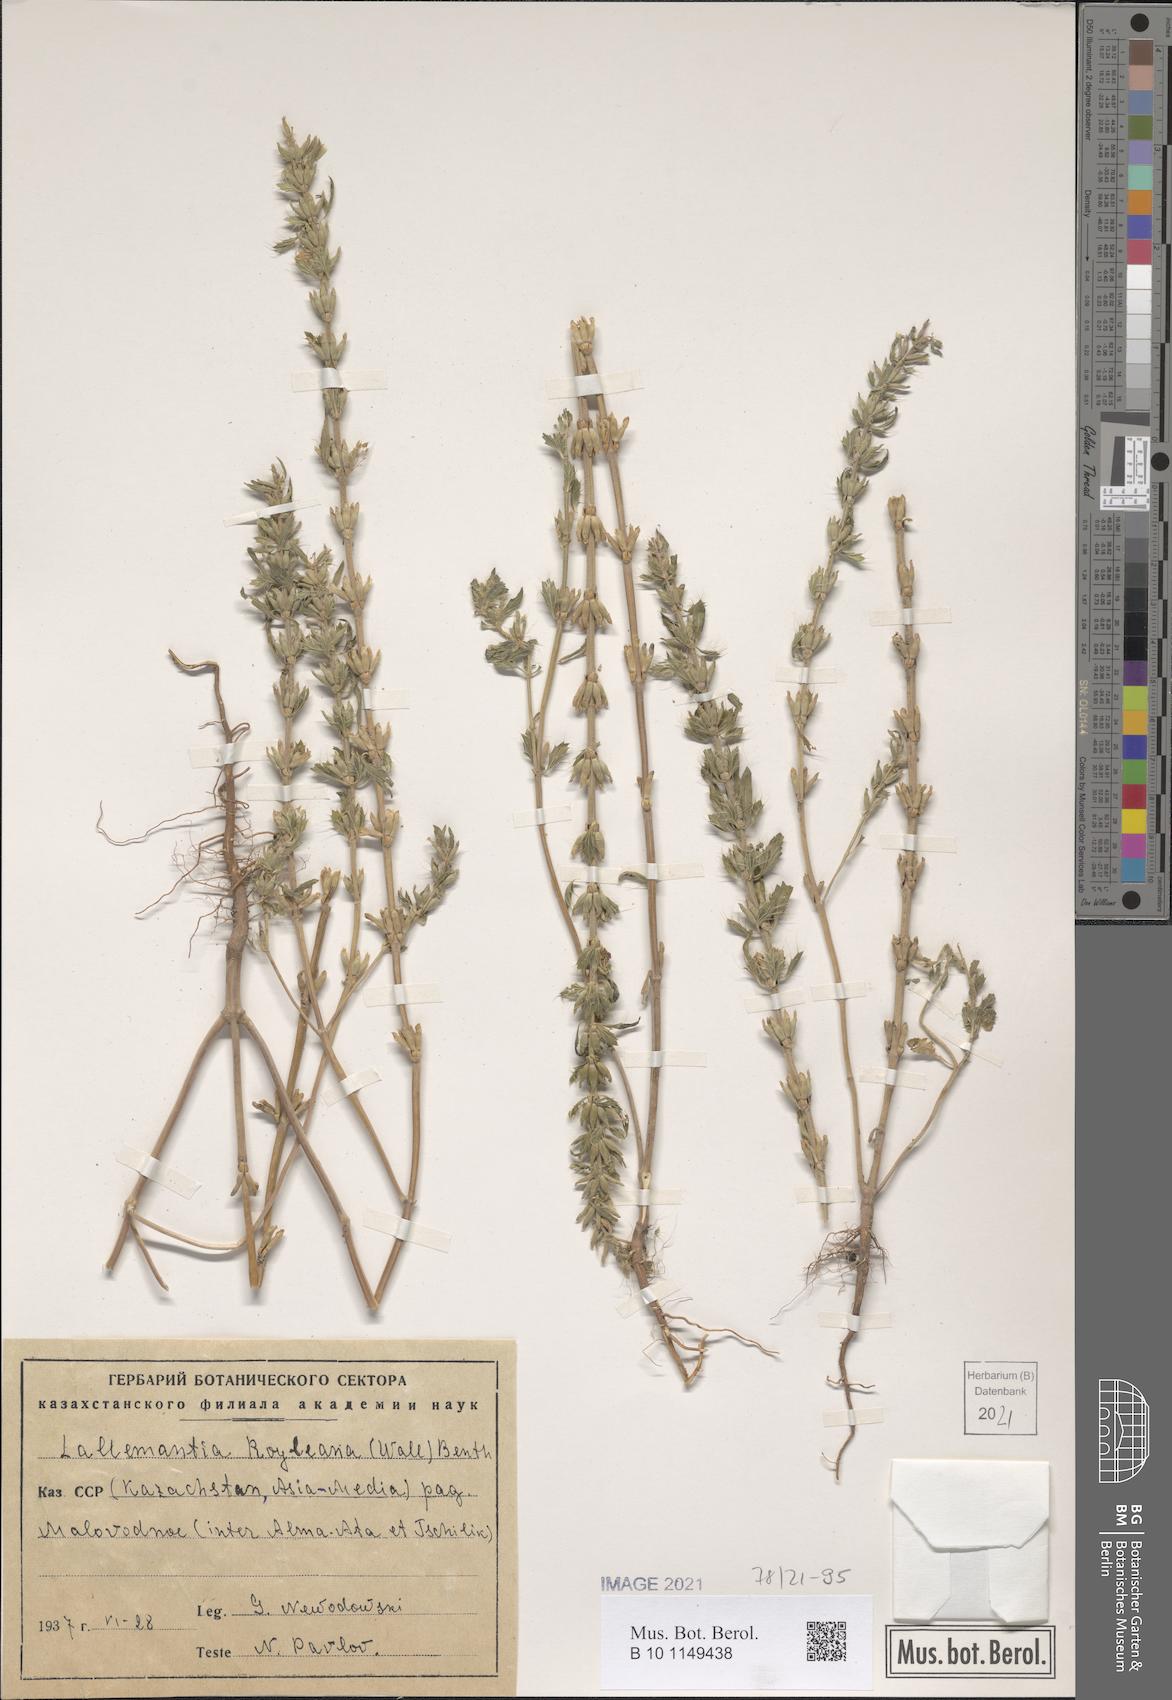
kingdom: Plantae
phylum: Tracheophyta
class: Magnoliopsida
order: Lamiales
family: Lamiaceae
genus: Lallemantia
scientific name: Lallemantia royleana
